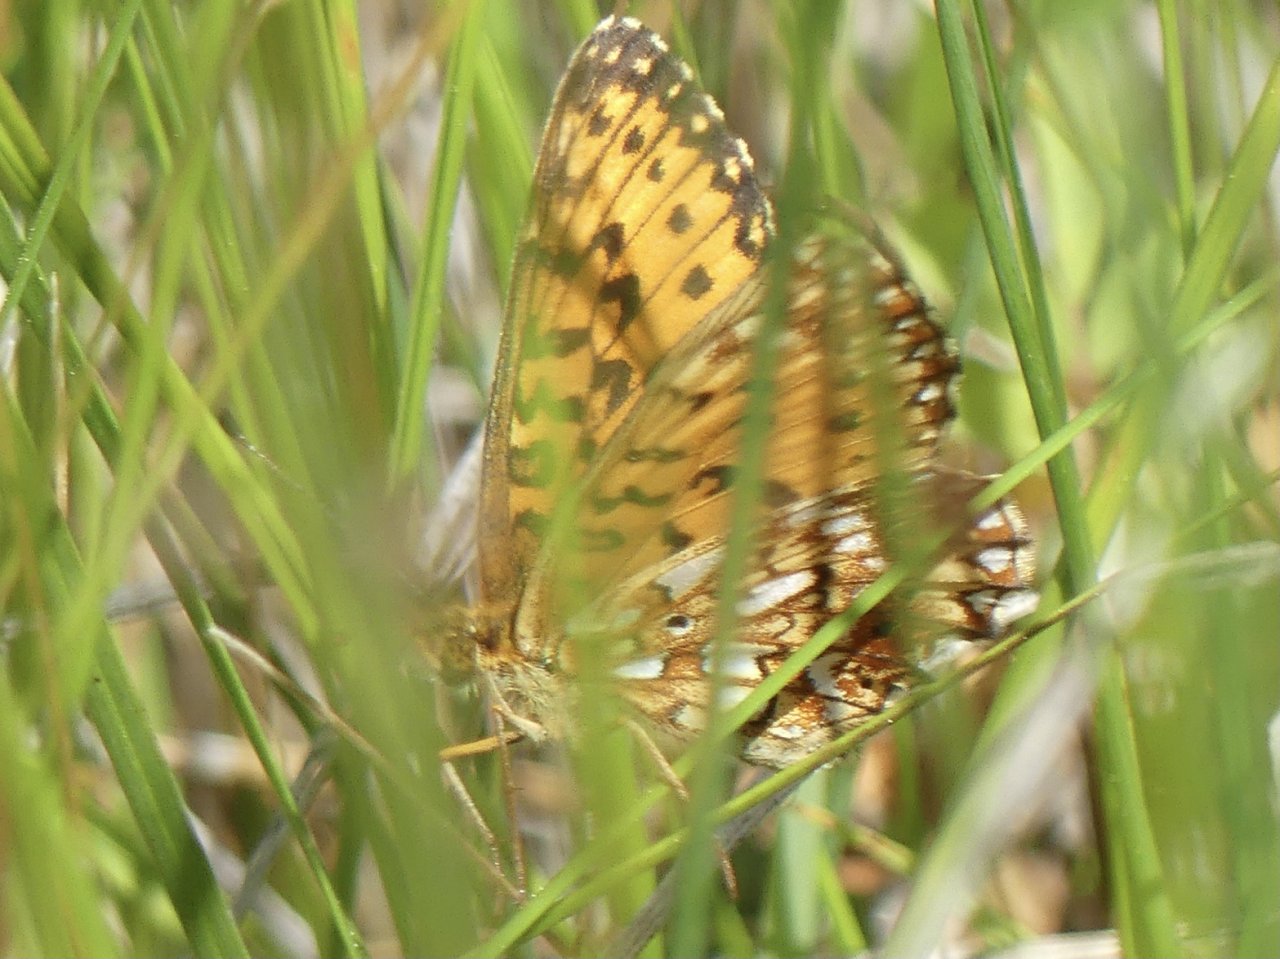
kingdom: Animalia
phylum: Arthropoda
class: Insecta
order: Lepidoptera
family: Nymphalidae
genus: Boloria
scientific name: Boloria selene
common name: Silver-bordered Fritillary
